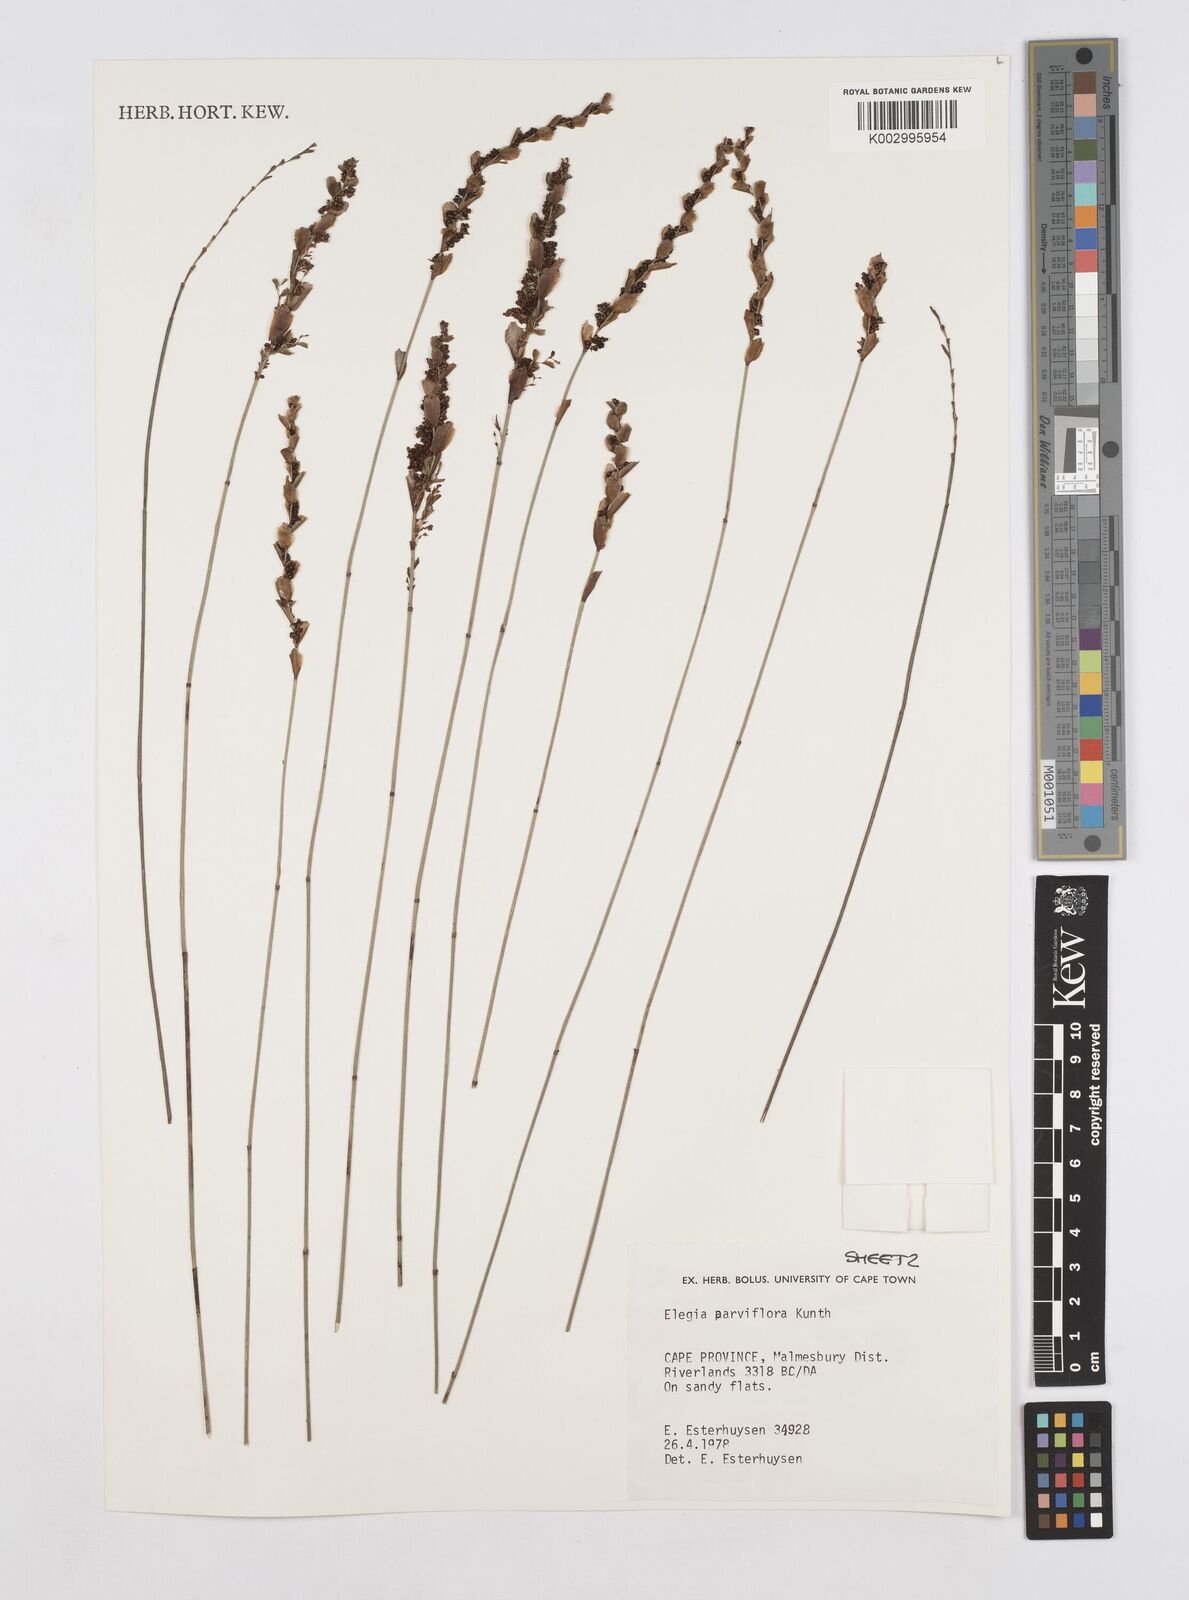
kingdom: Plantae
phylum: Tracheophyta
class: Liliopsida
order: Poales
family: Restionaceae
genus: Cannomois
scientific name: Cannomois parviflora
